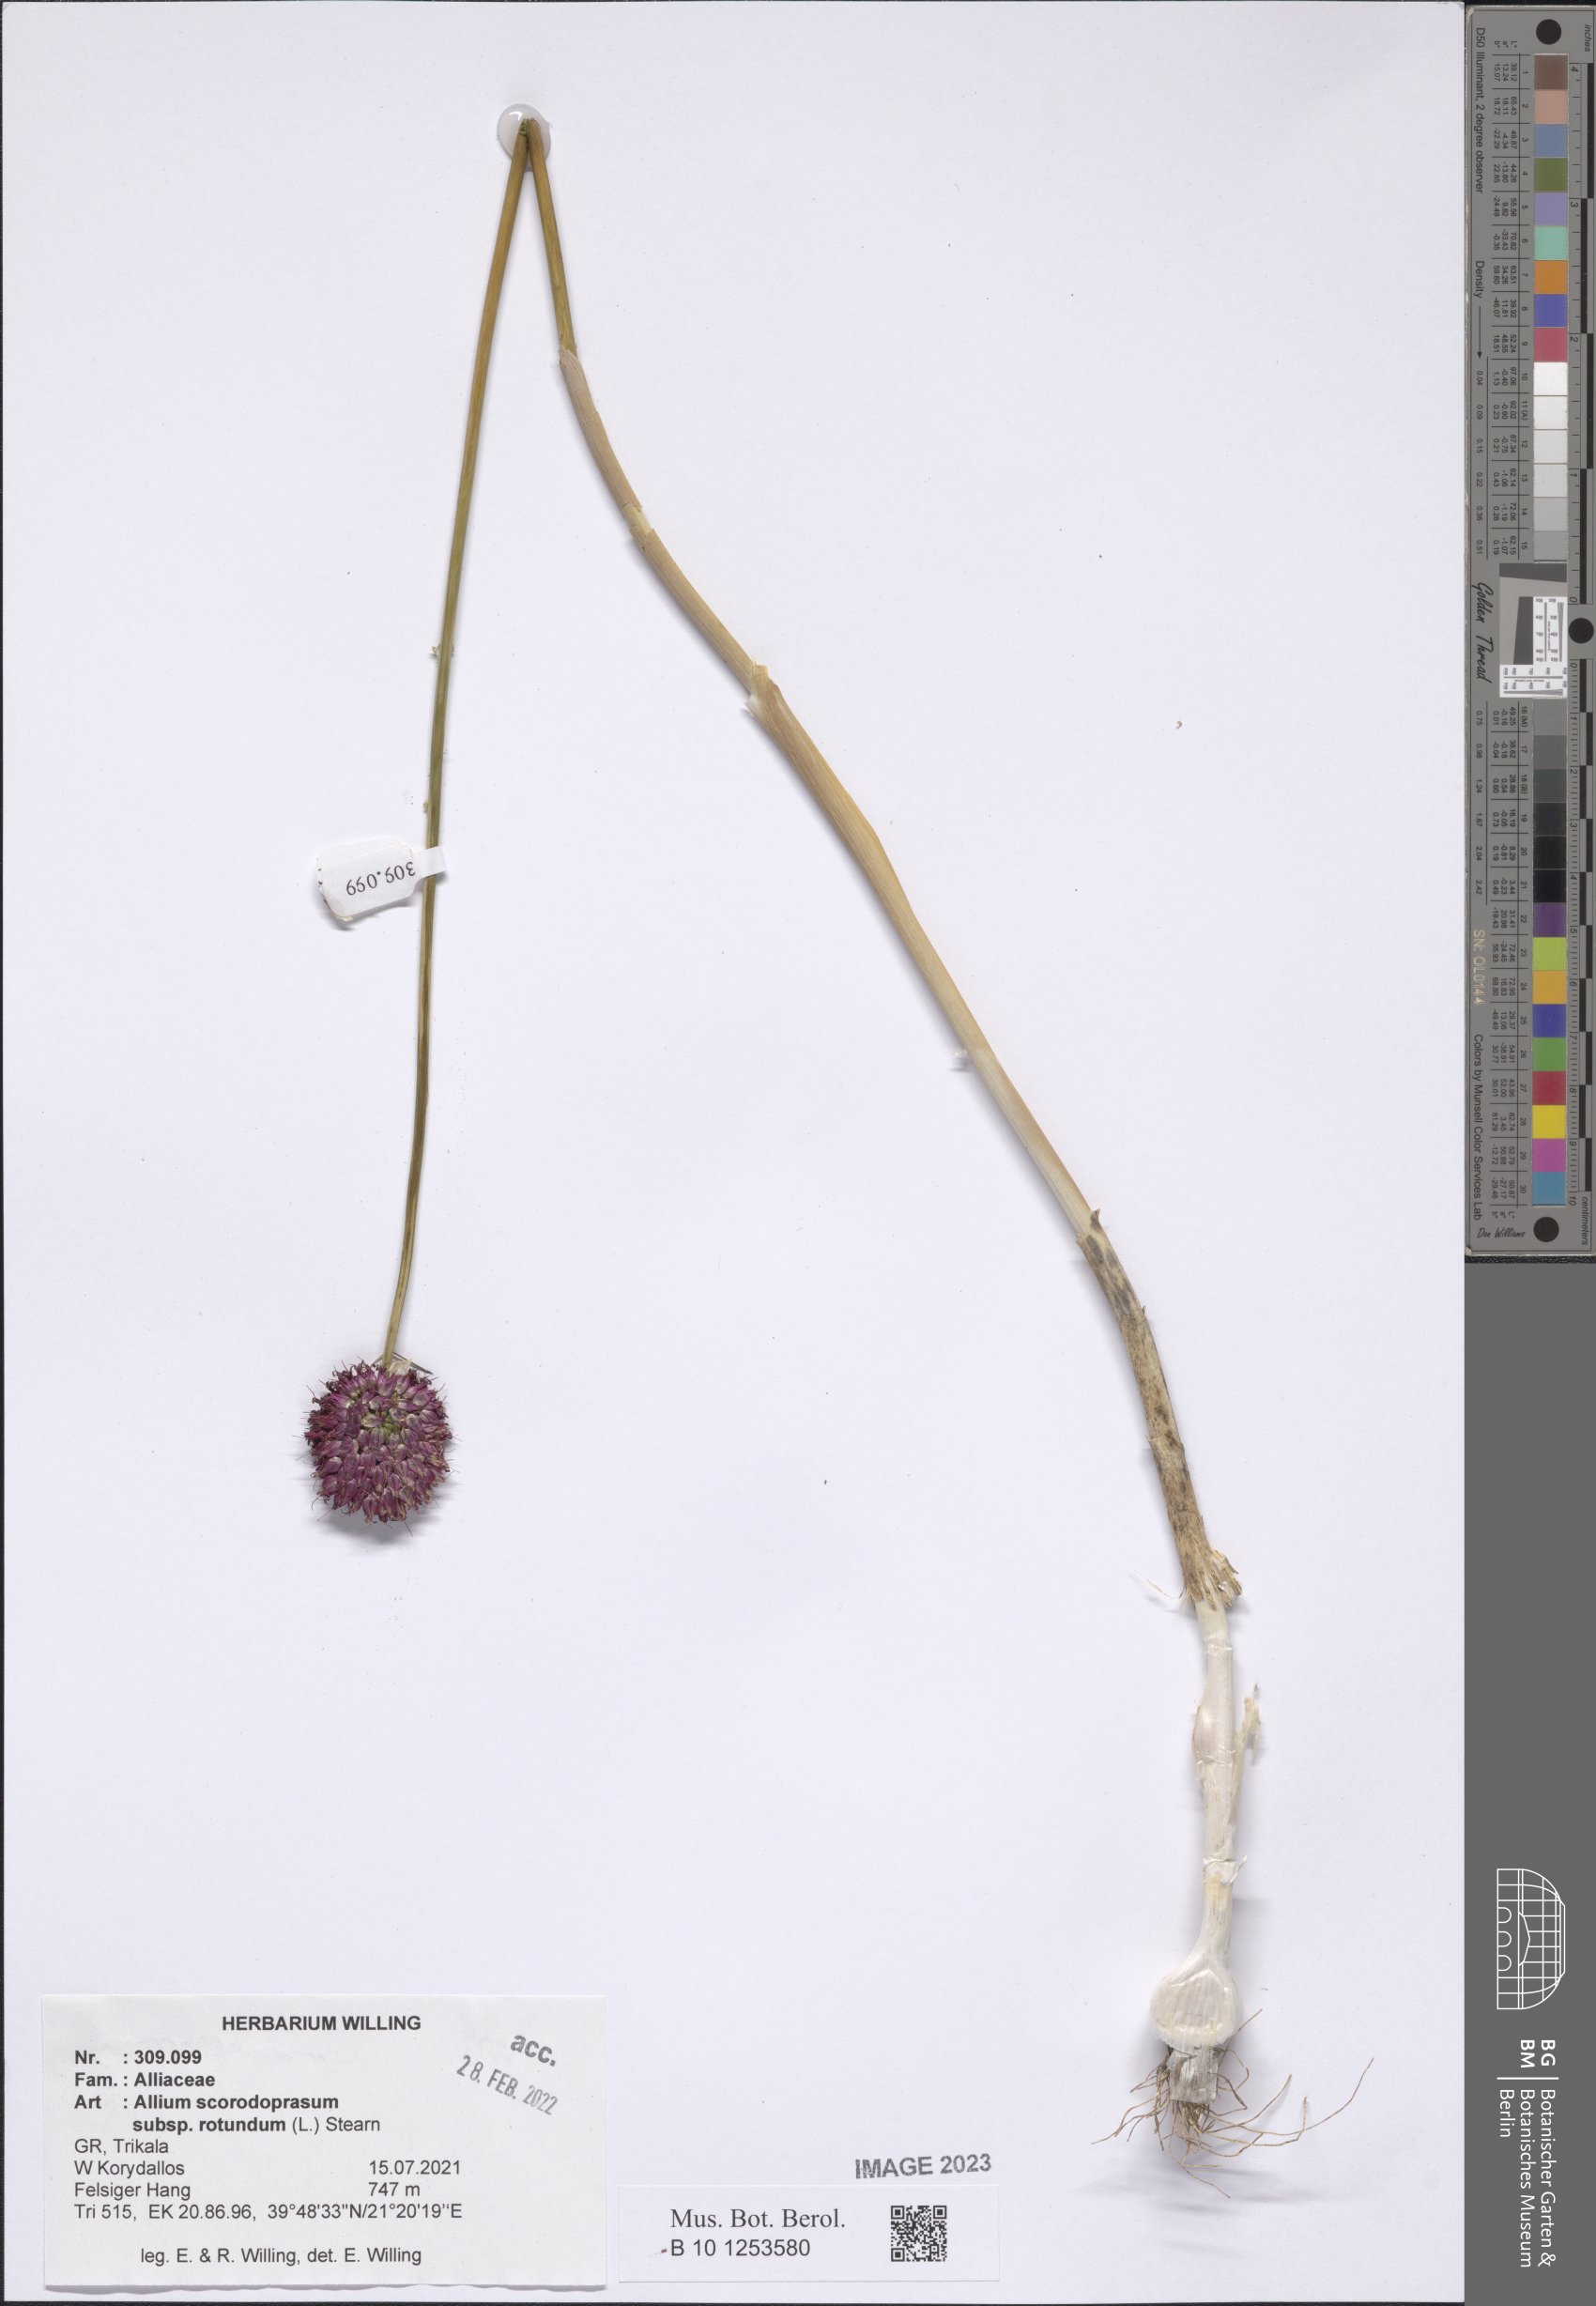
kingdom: Plantae
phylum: Tracheophyta
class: Liliopsida
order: Asparagales
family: Amaryllidaceae
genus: Allium
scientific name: Allium rotundum
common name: Sand leek
